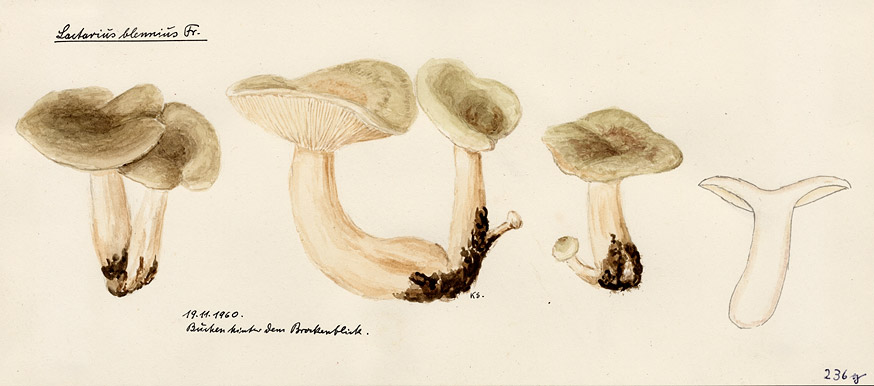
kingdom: Fungi
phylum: Basidiomycota
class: Agaricomycetes
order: Russulales
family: Russulaceae
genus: Lactarius
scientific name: Lactarius blennius
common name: Beech milkcap
